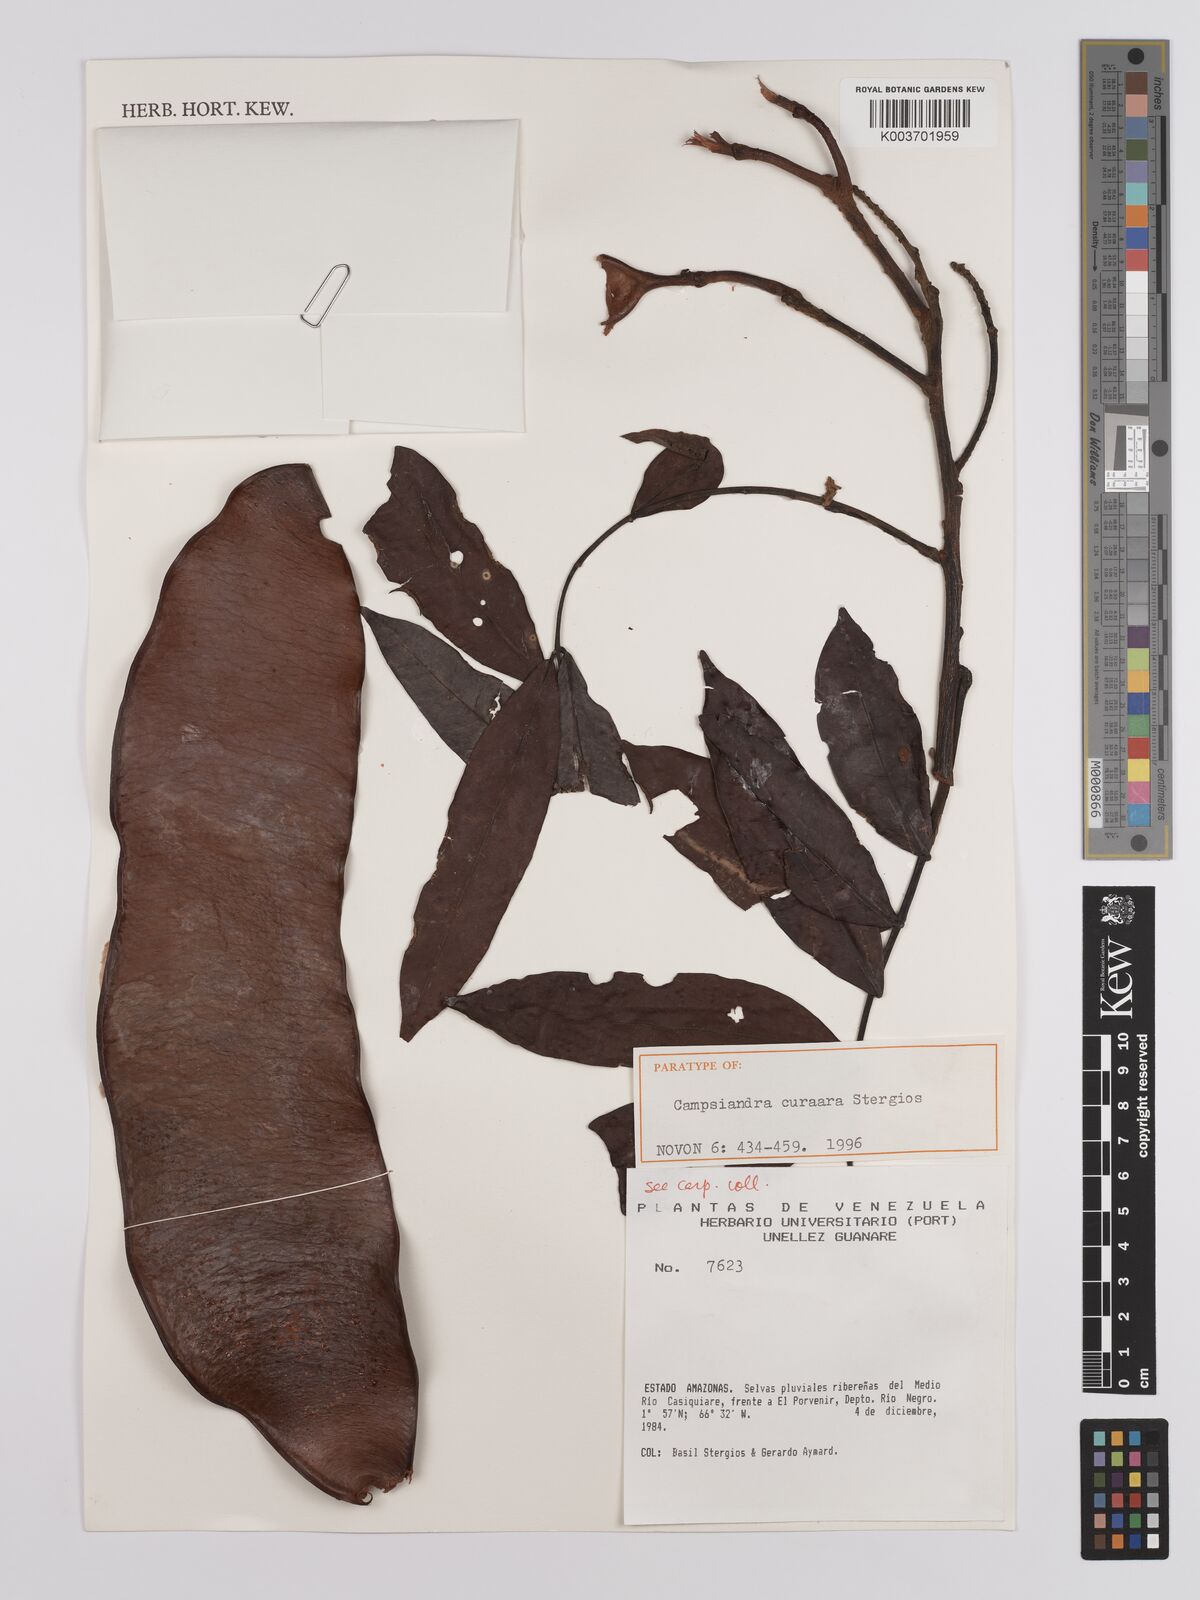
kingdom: Plantae
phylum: Tracheophyta
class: Magnoliopsida
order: Fabales
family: Fabaceae
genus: Campsiandra
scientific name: Campsiandra curaara
